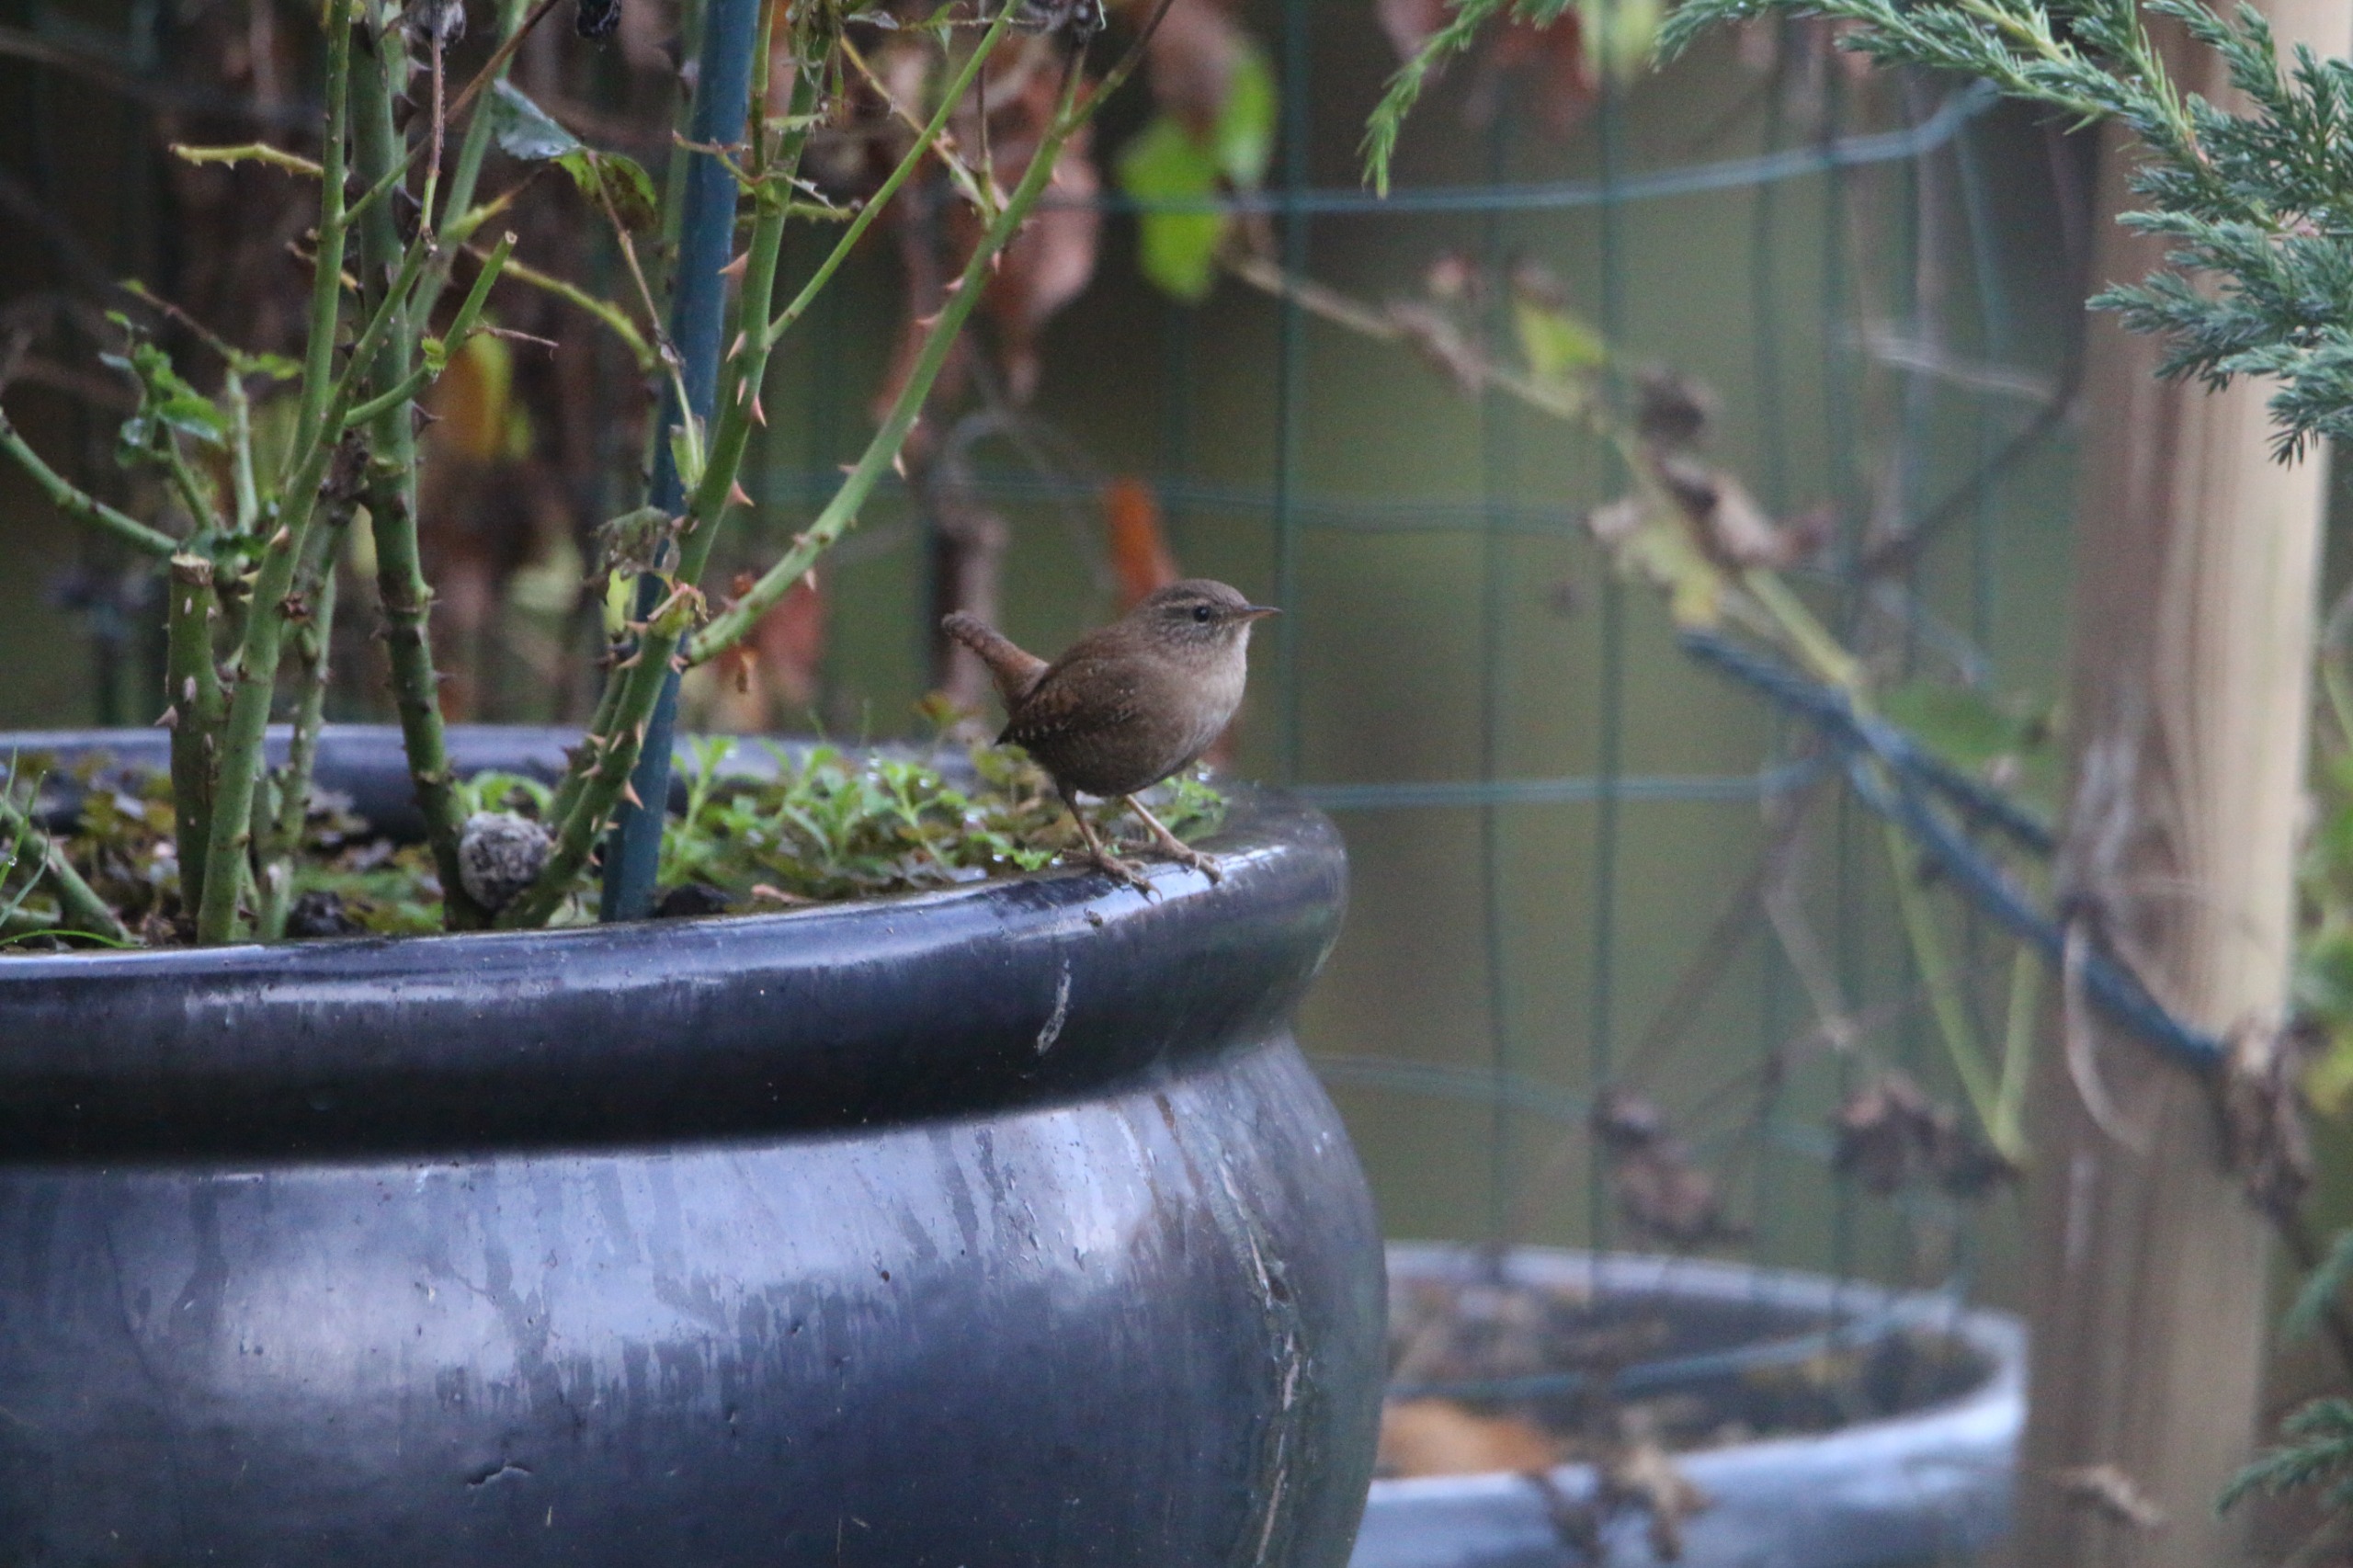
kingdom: Animalia
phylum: Chordata
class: Aves
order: Passeriformes
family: Troglodytidae
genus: Troglodytes
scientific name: Troglodytes troglodytes
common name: Gærdesmutte
